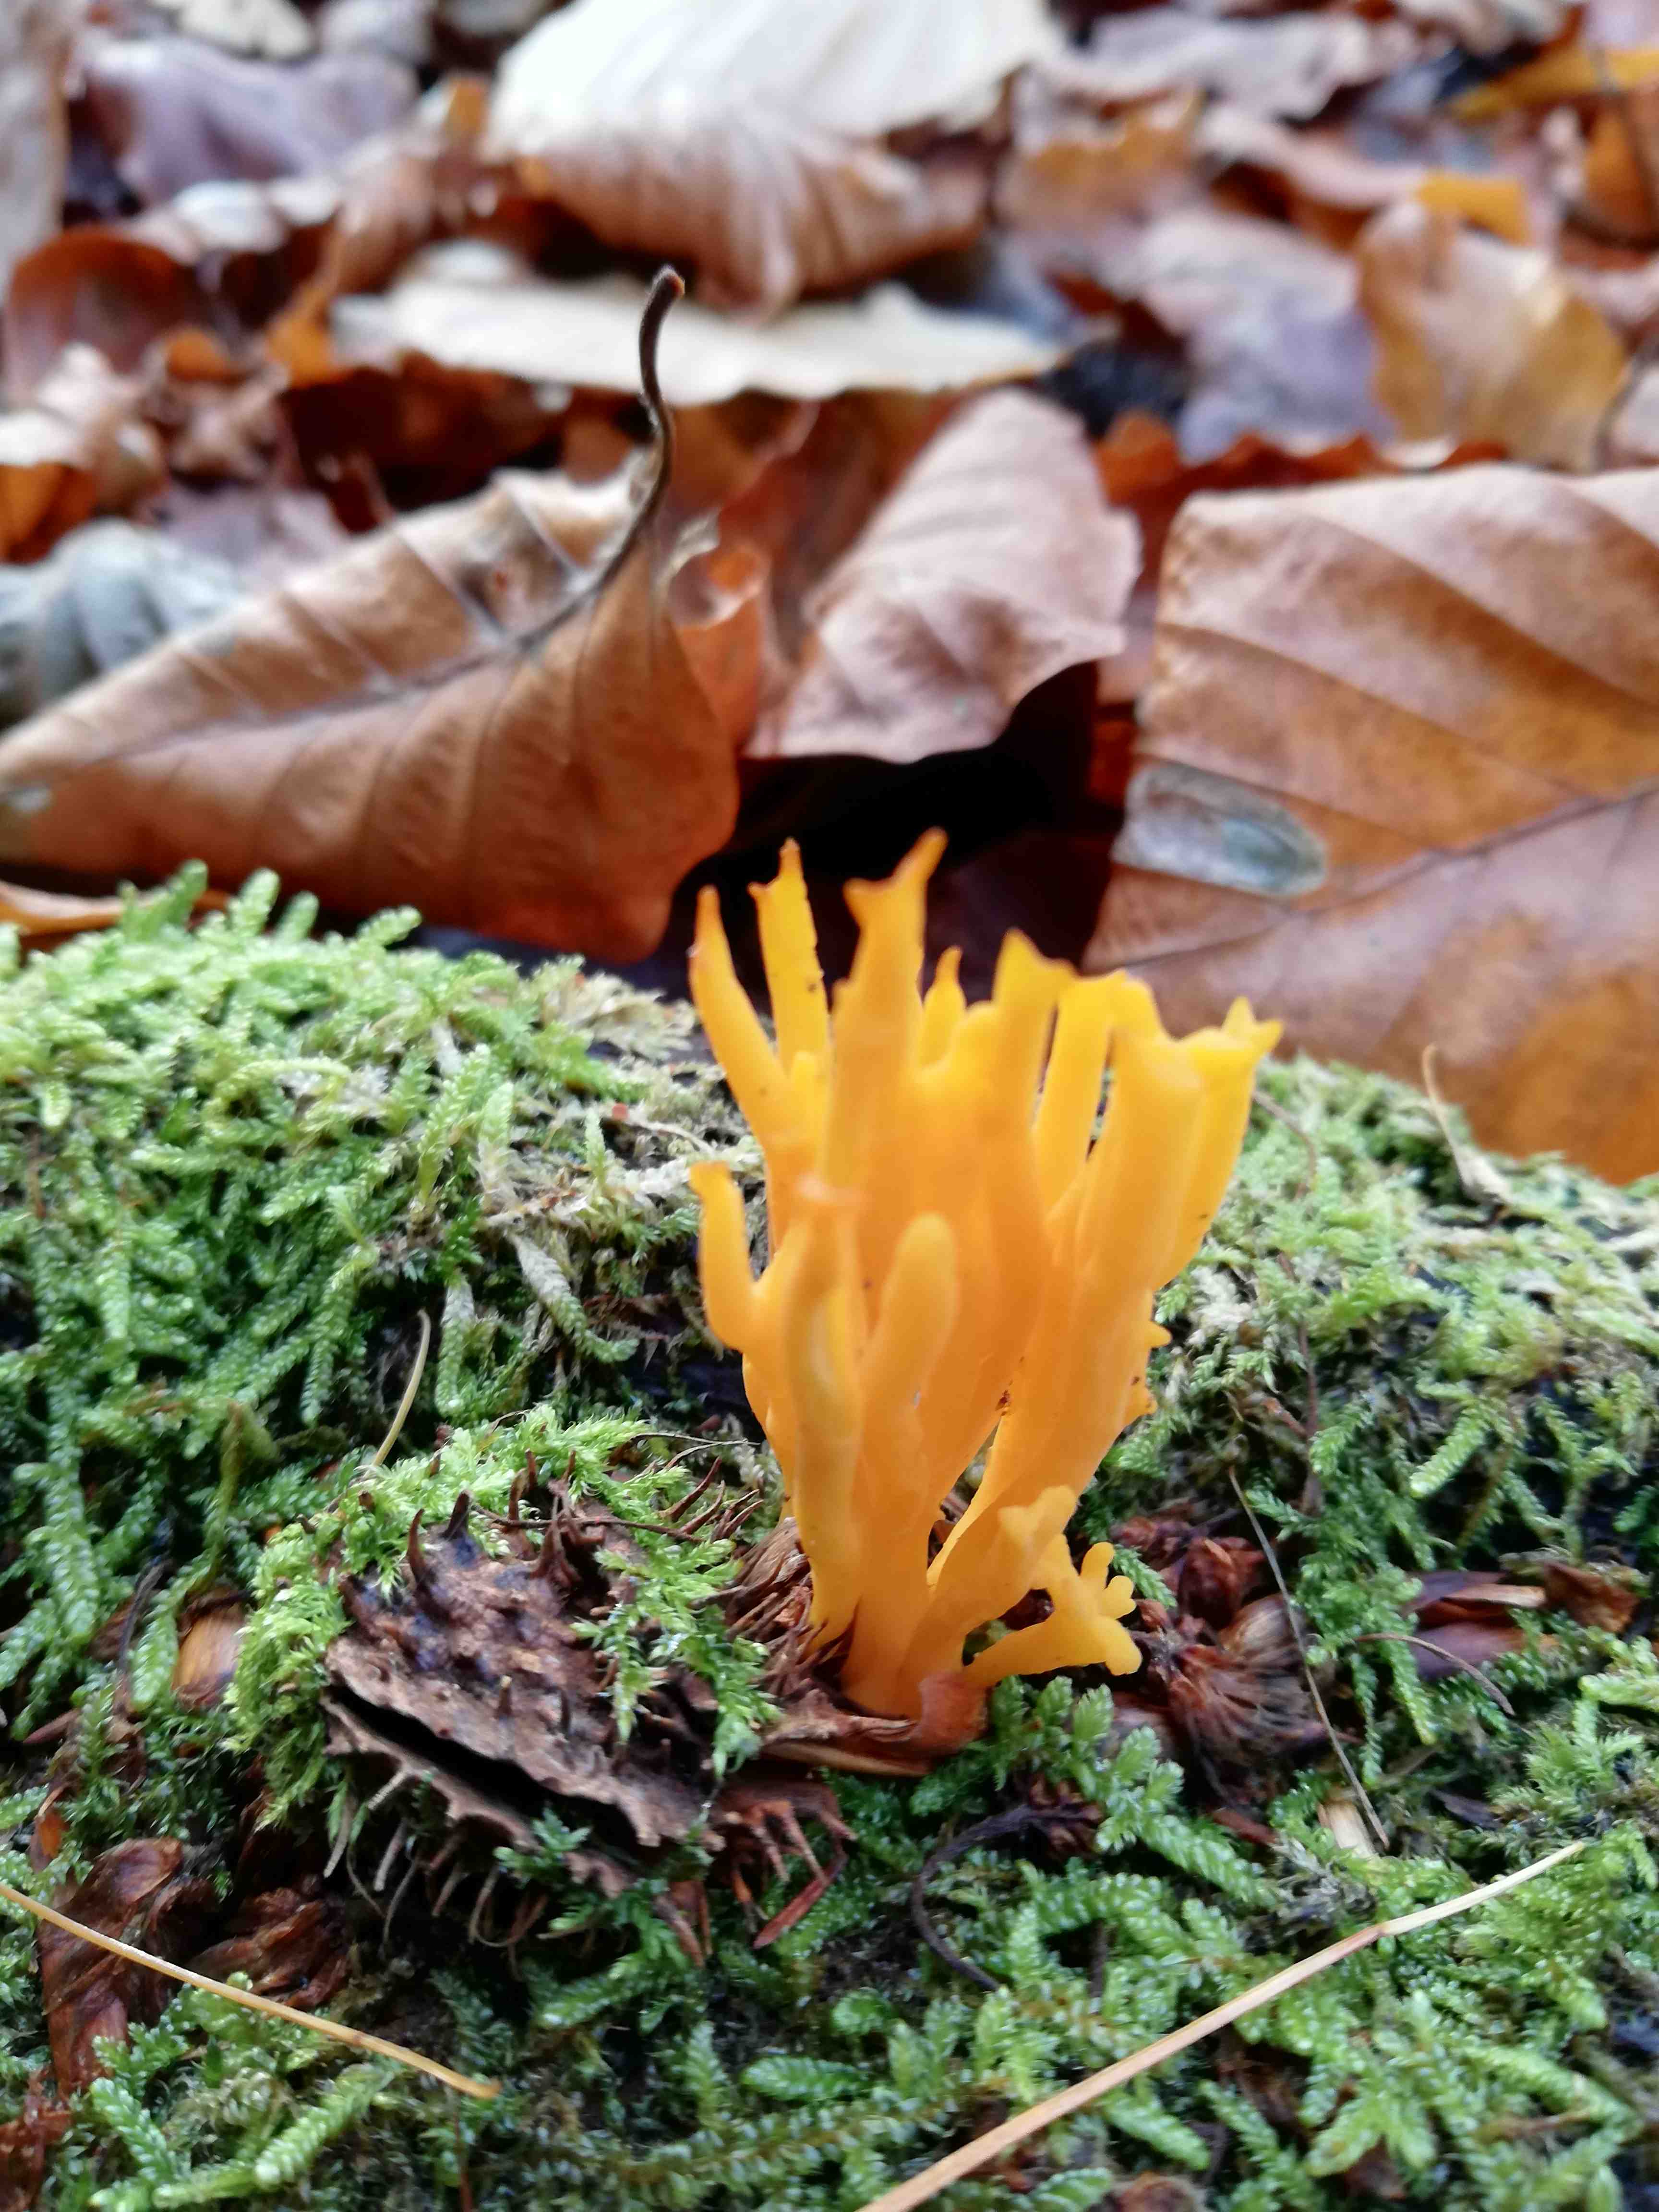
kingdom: Fungi
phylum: Basidiomycota
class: Dacrymycetes
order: Dacrymycetales
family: Dacrymycetaceae
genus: Calocera
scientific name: Calocera viscosa
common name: almindelig guldgaffel
